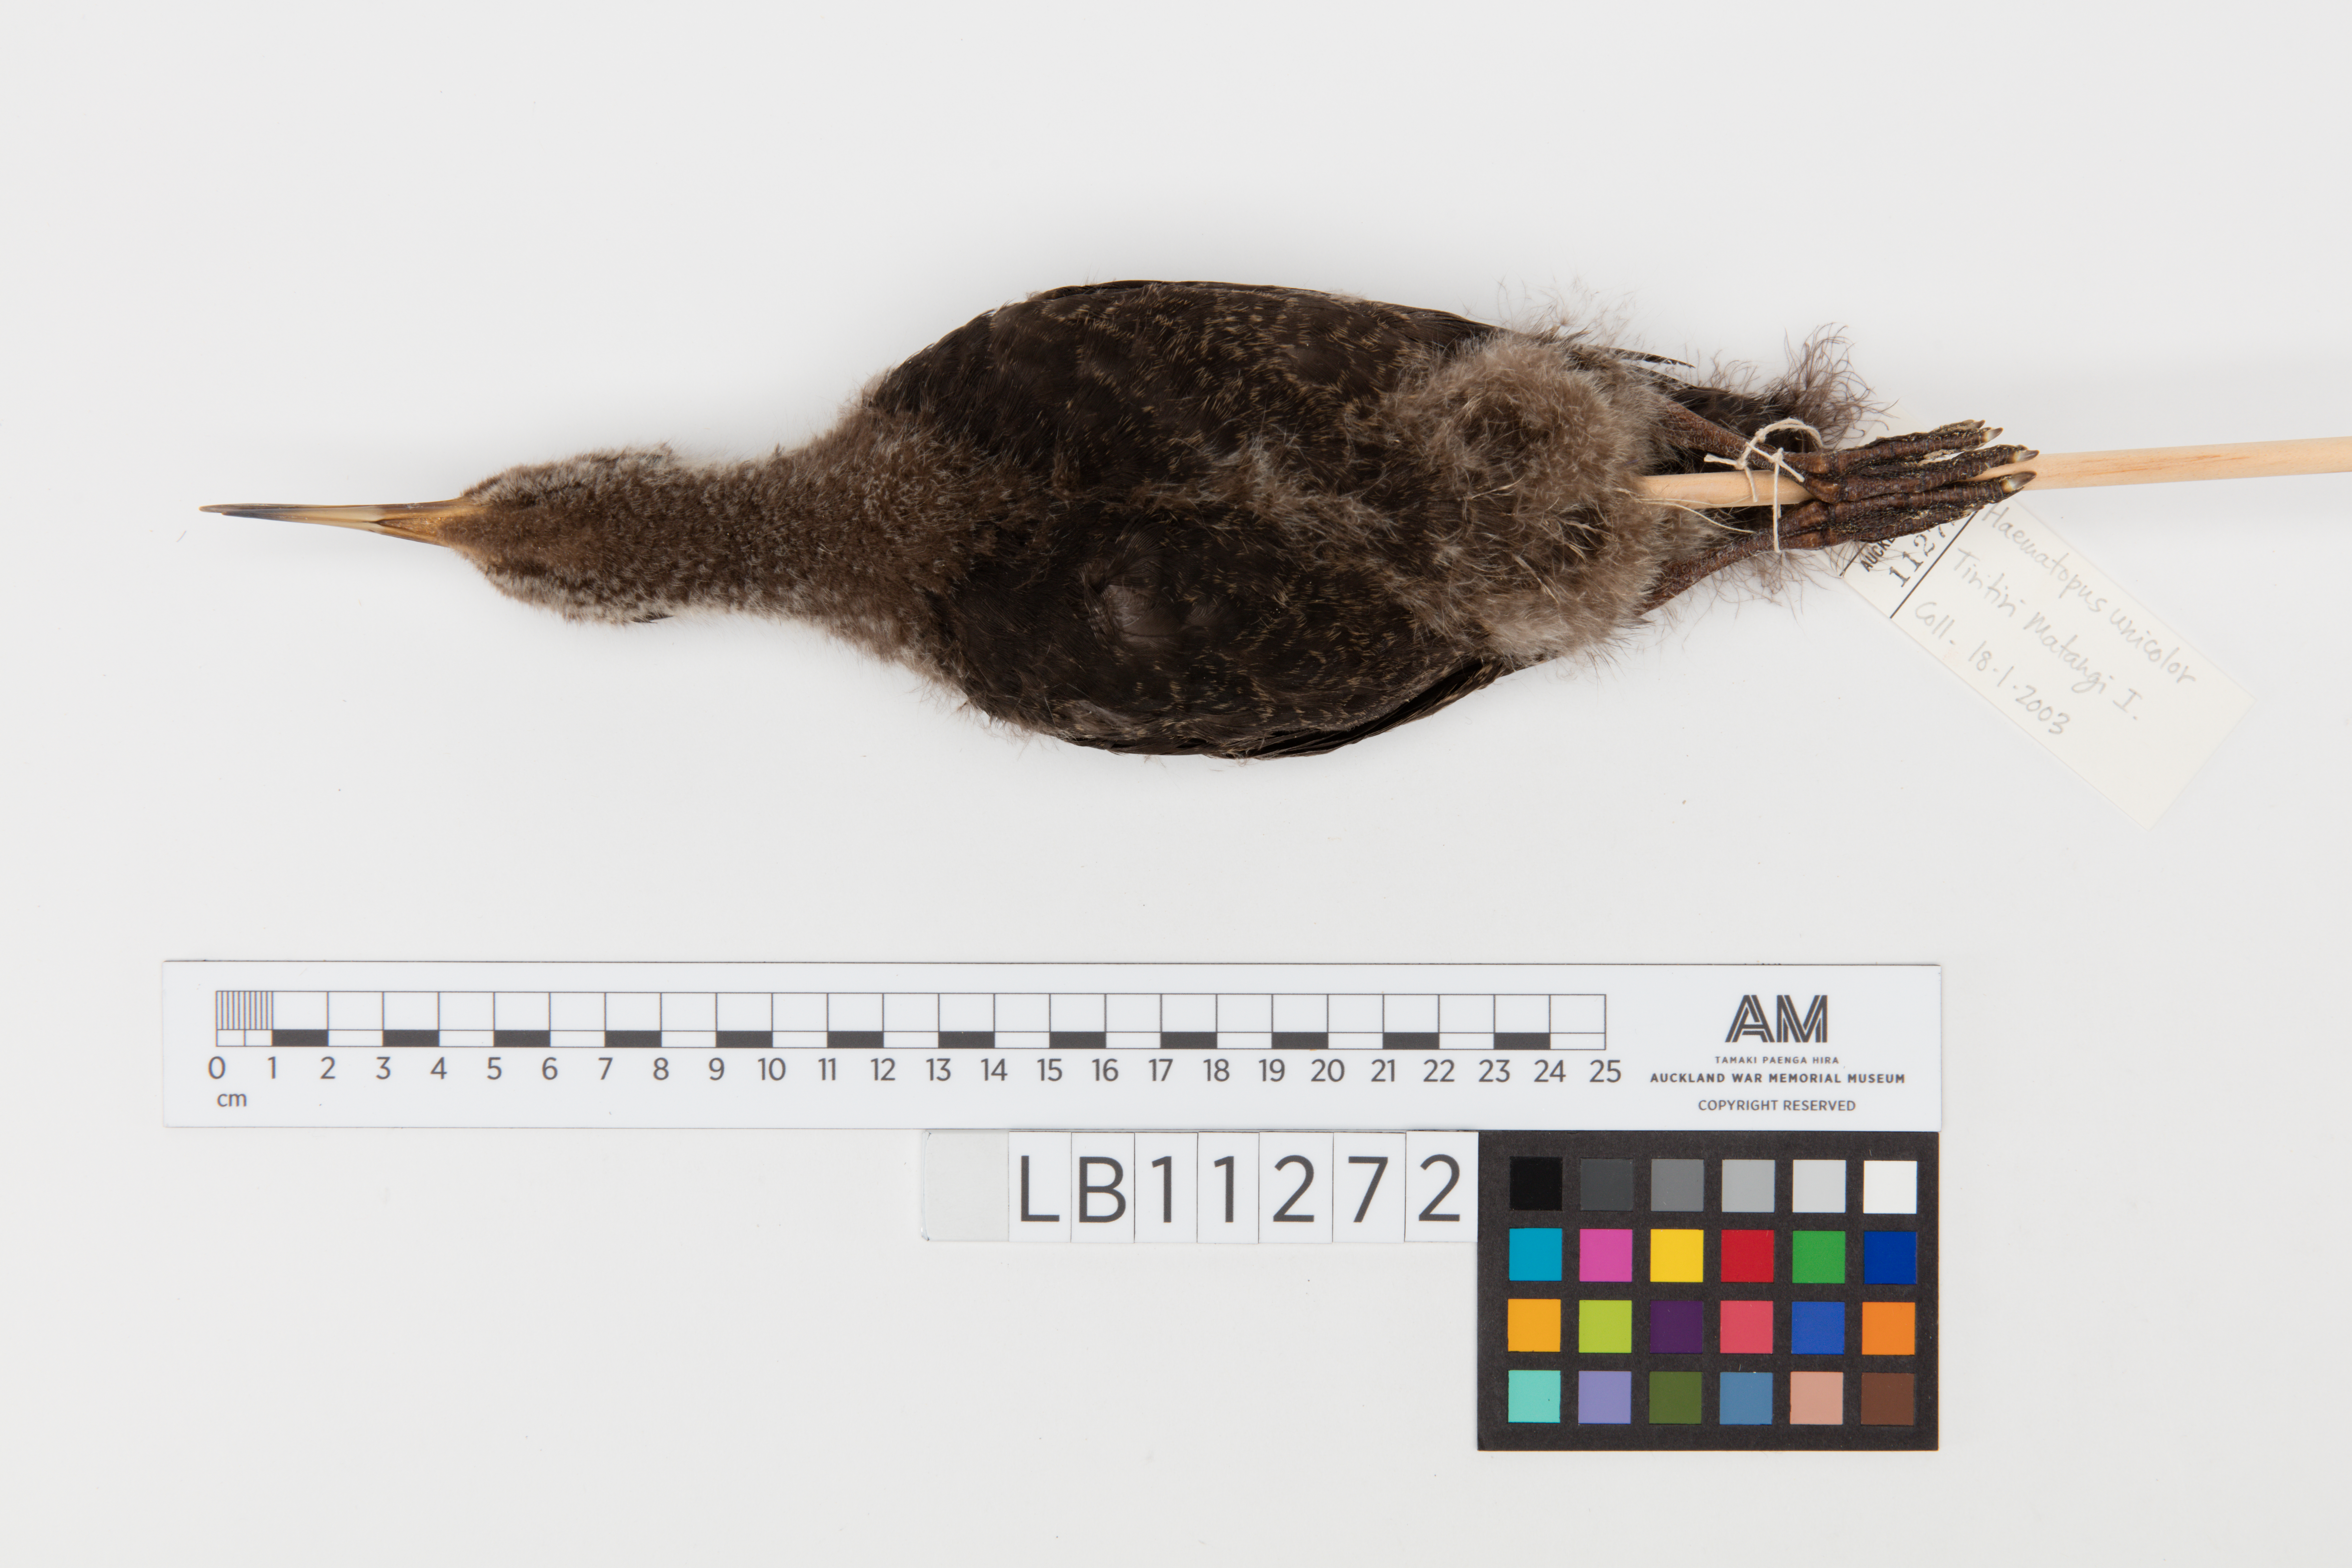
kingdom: Animalia
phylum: Chordata
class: Aves
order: Charadriiformes
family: Haematopodidae
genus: Haematopus
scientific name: Haematopus unicolor
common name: Variable oystercatcher
